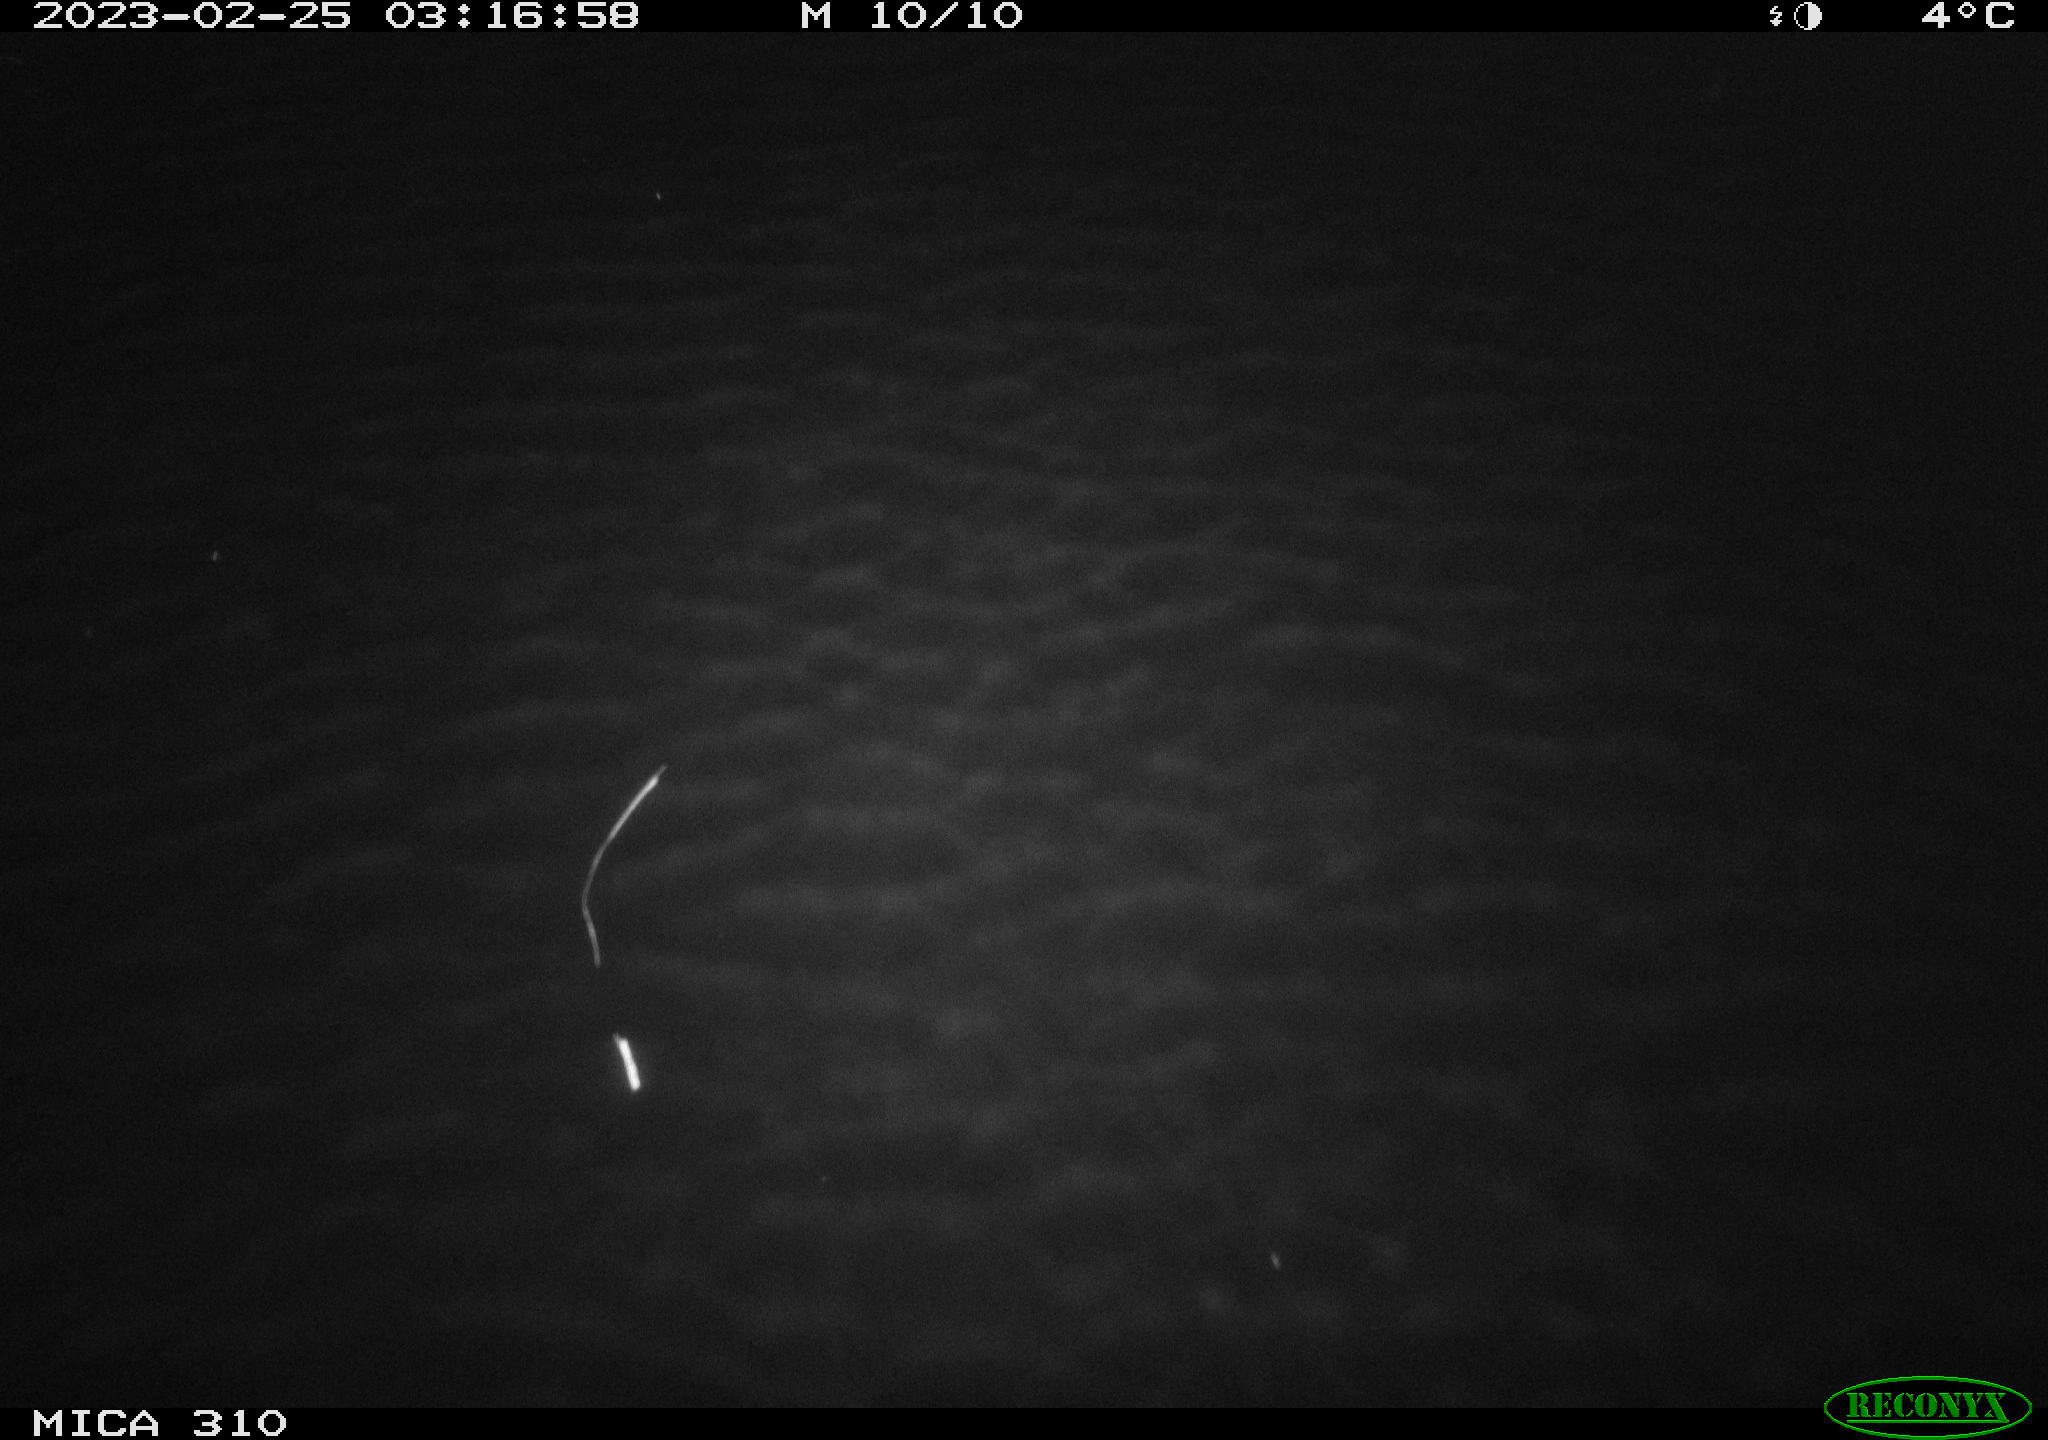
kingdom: Animalia
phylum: Chordata
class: Aves
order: Anseriformes
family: Anatidae
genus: Anas
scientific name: Anas
